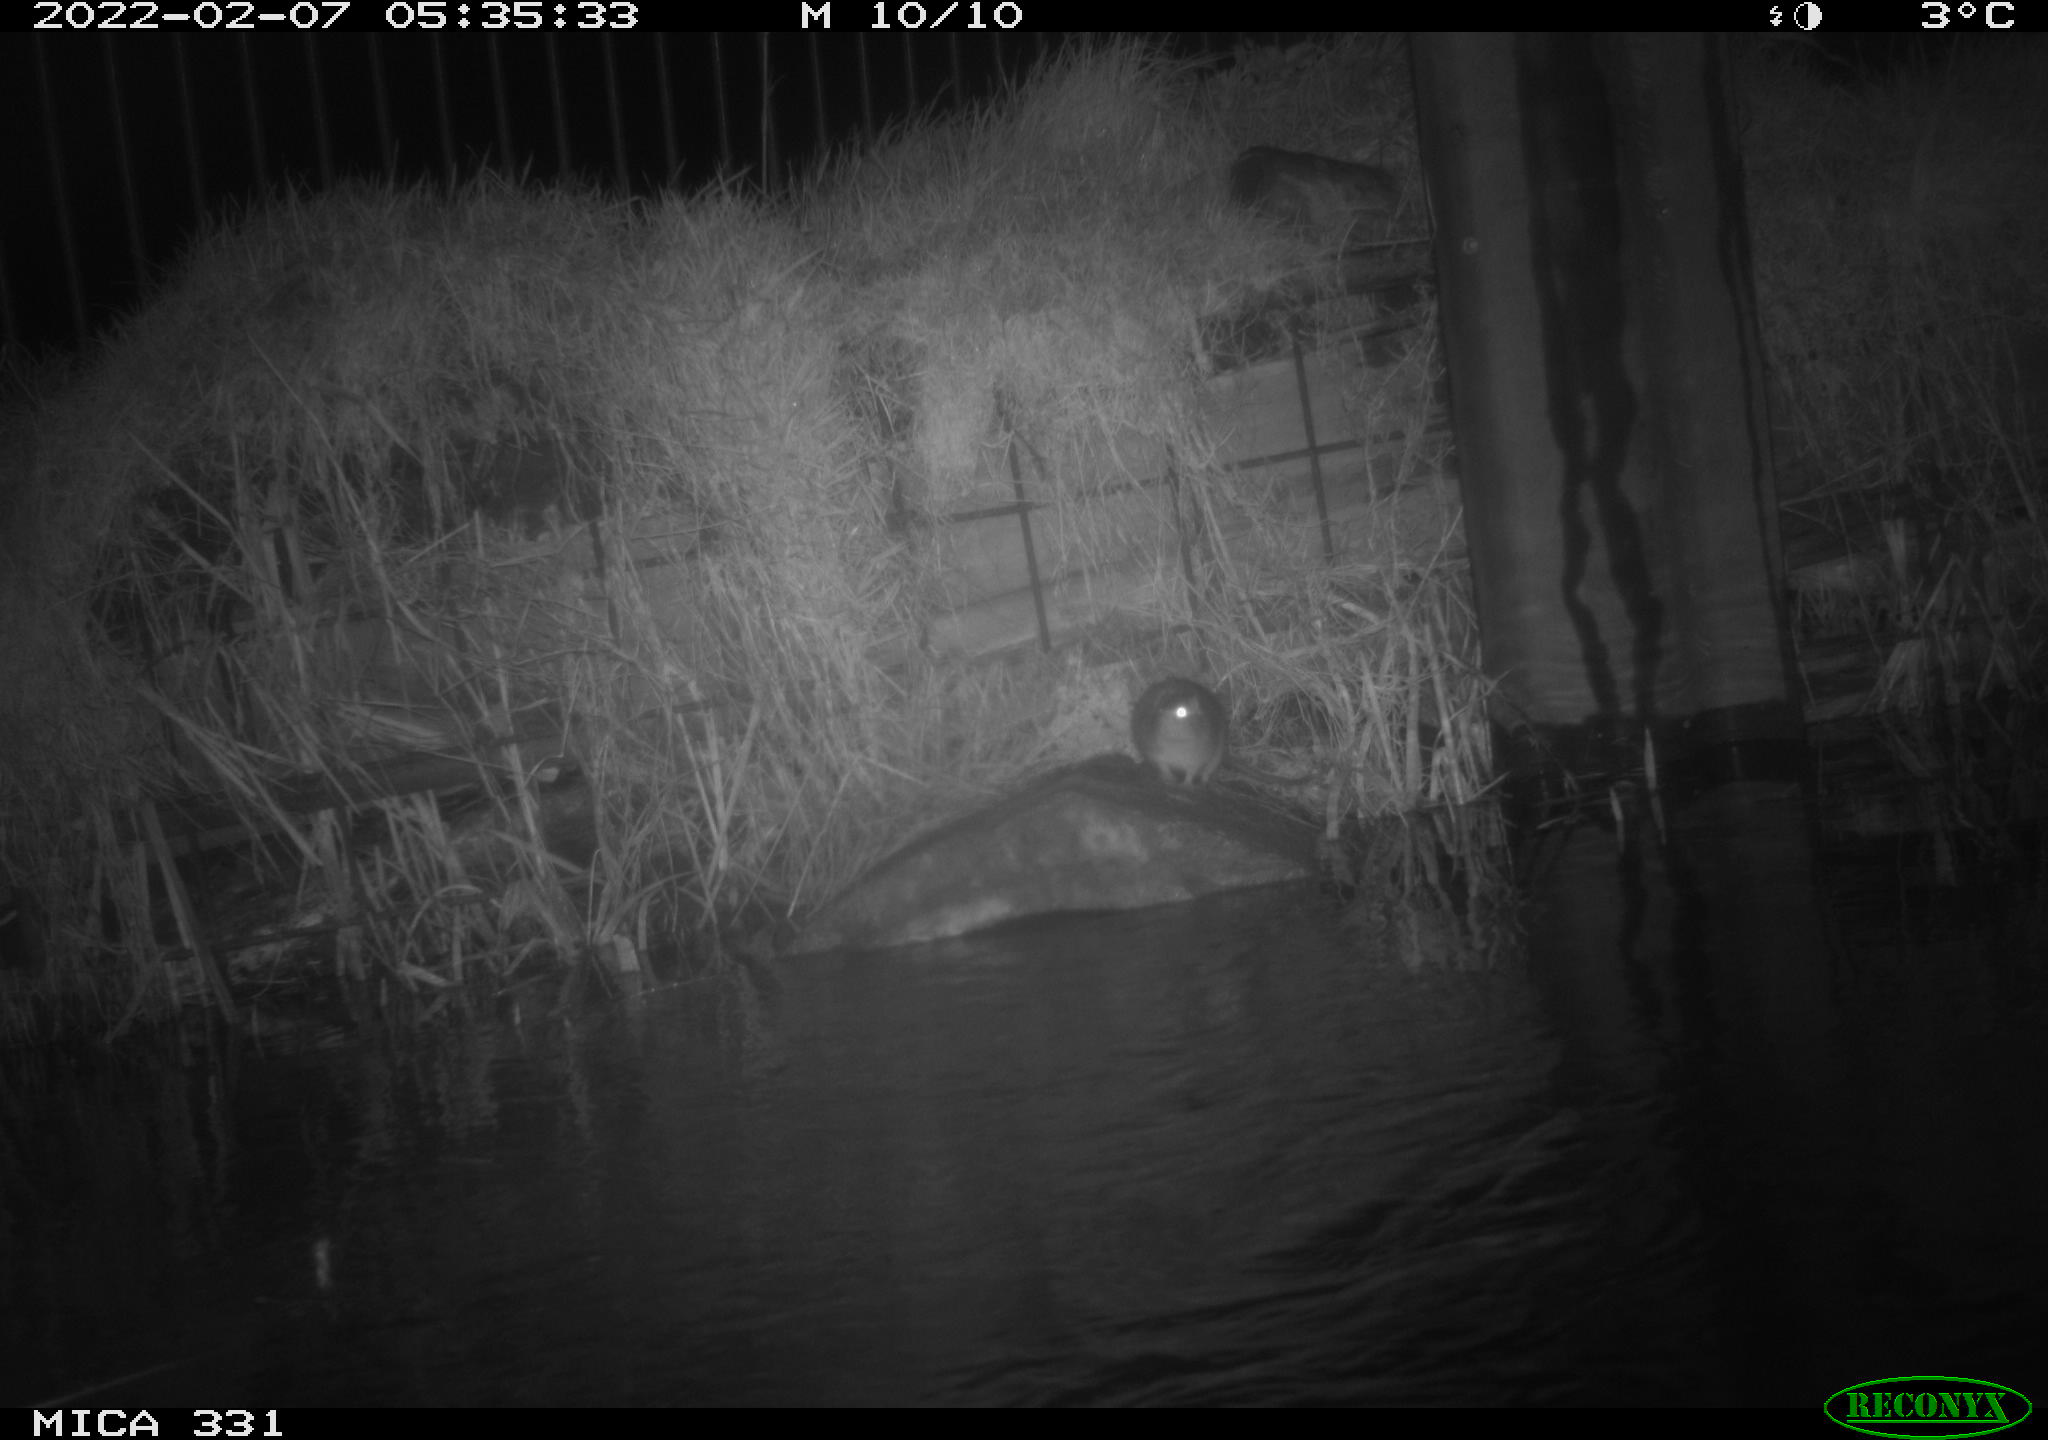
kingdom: Animalia
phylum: Chordata
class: Mammalia
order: Rodentia
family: Muridae
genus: Rattus
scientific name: Rattus norvegicus
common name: Brown rat
